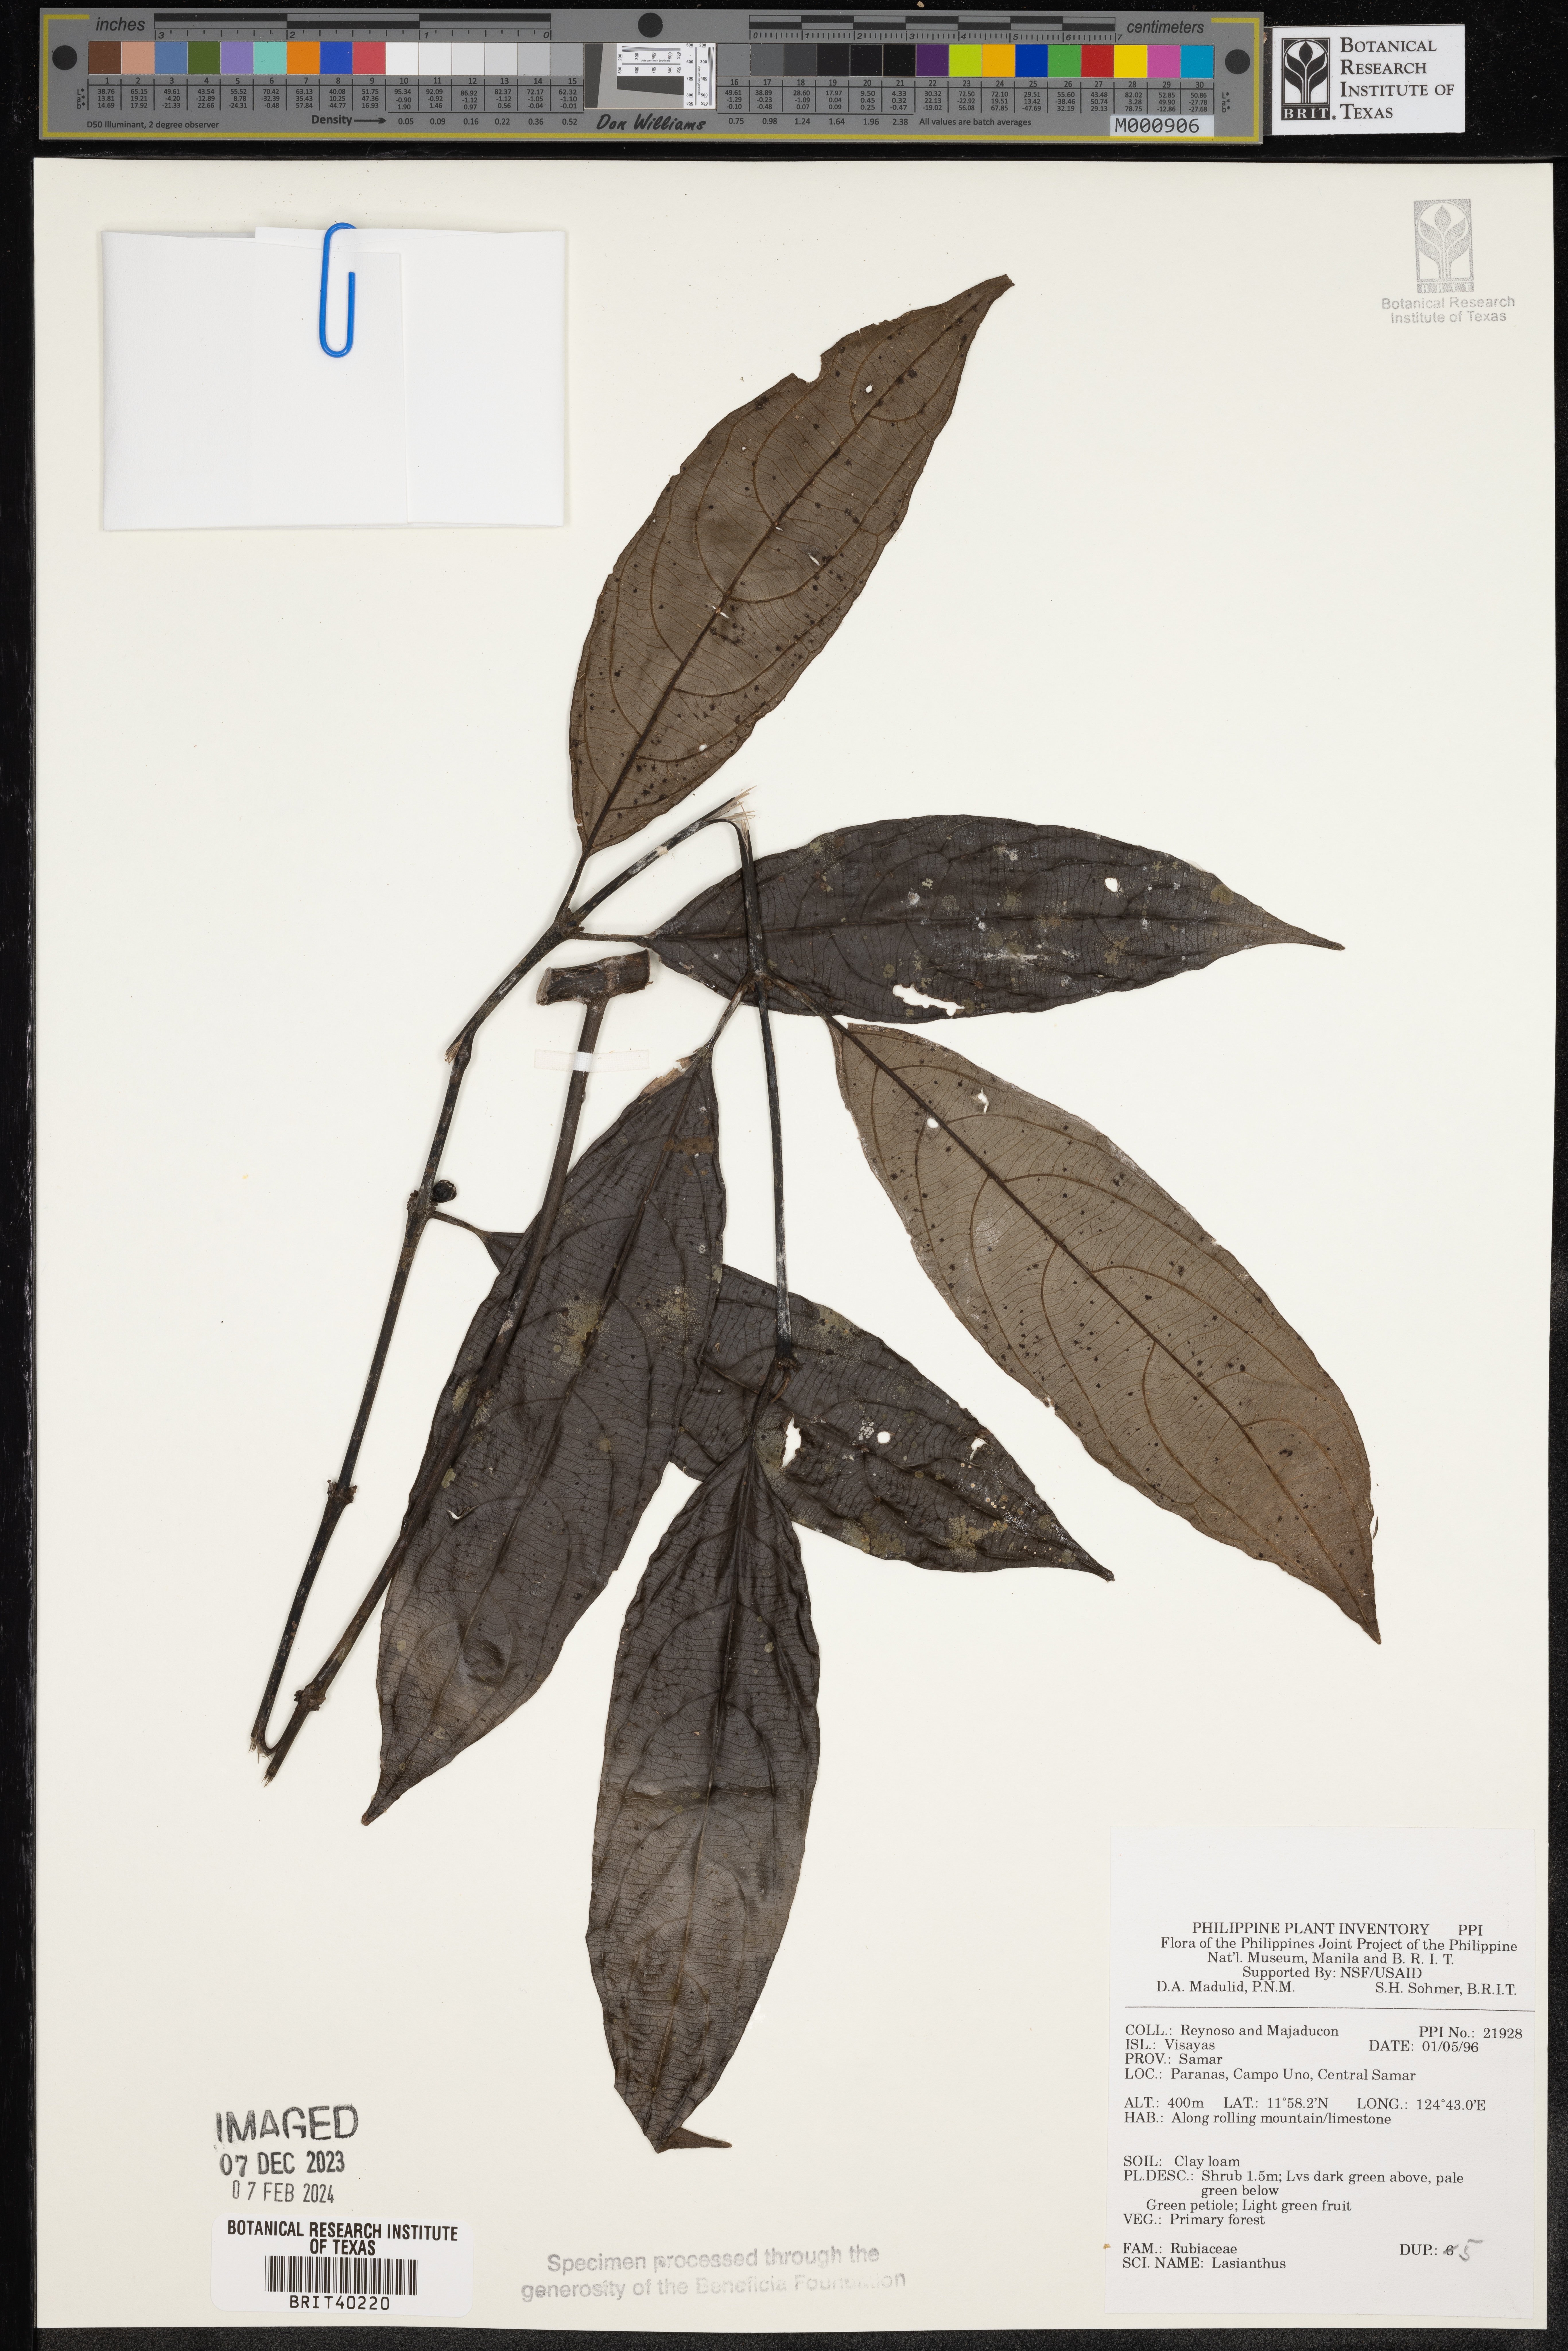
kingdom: Plantae
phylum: Tracheophyta
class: Magnoliopsida
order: Gentianales
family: Rubiaceae
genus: Lasianthus
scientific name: Lasianthus
